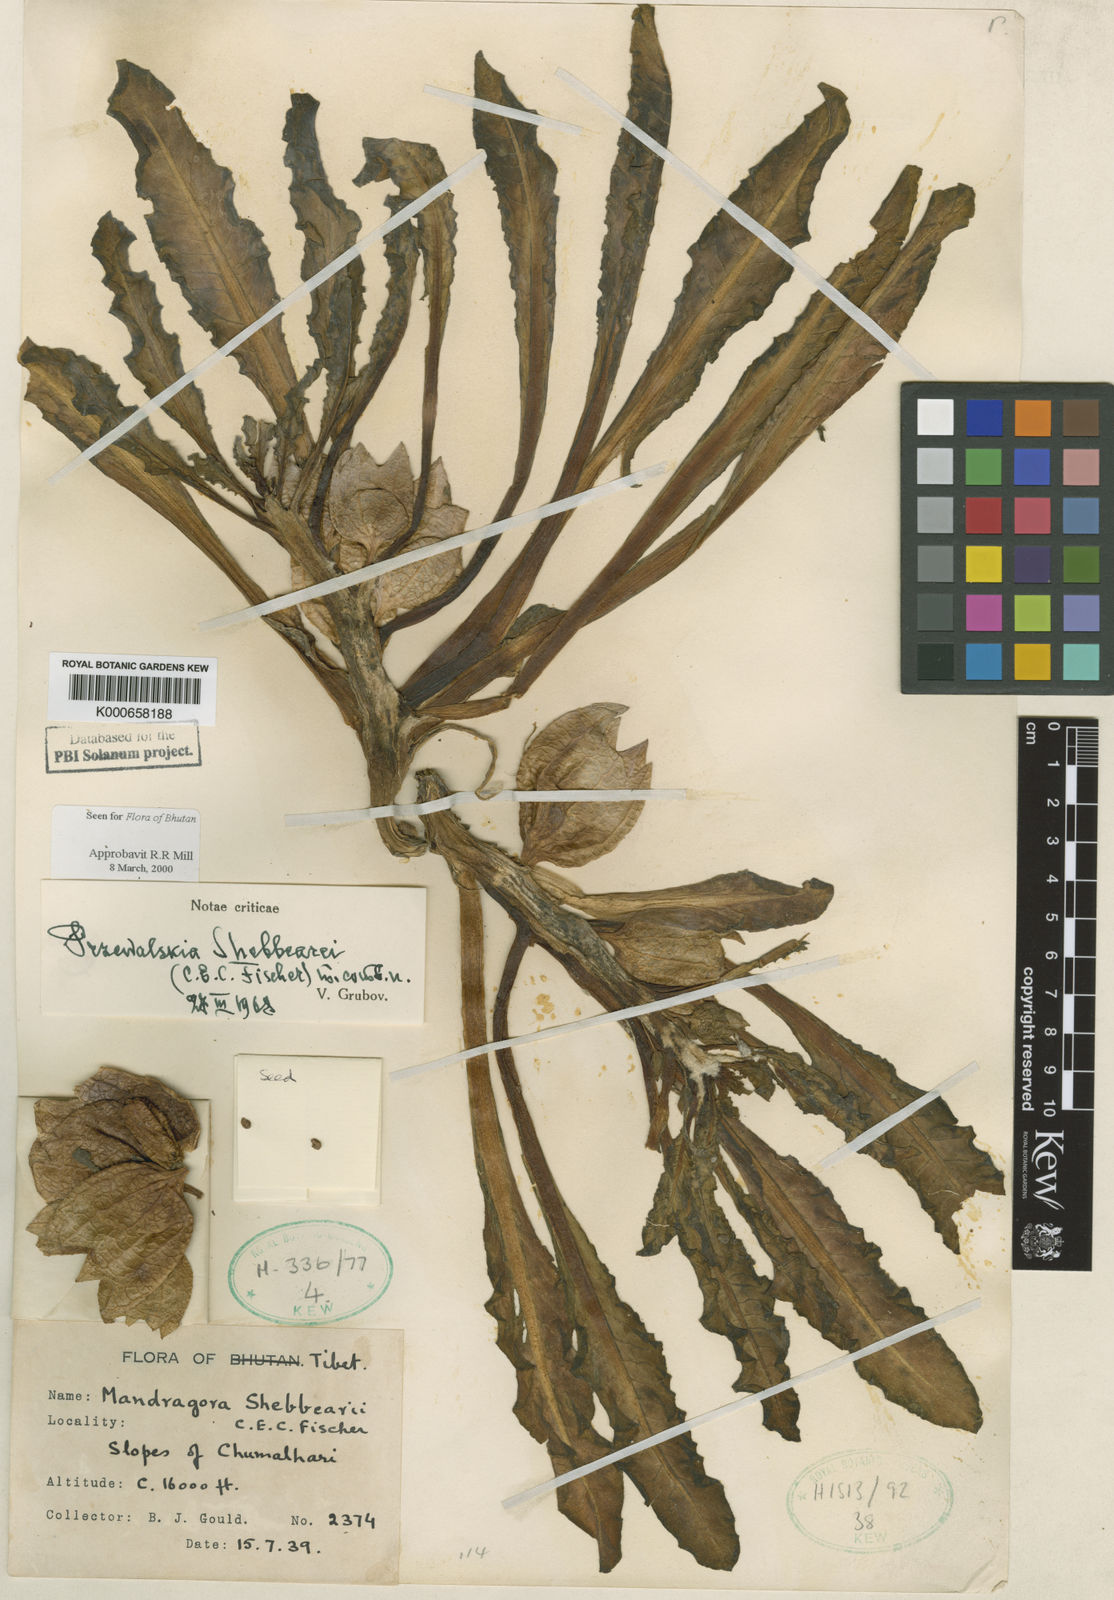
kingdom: Plantae
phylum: Tracheophyta
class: Magnoliopsida
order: Solanales
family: Solanaceae
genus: Przewalskia
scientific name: Przewalskia tangutica
